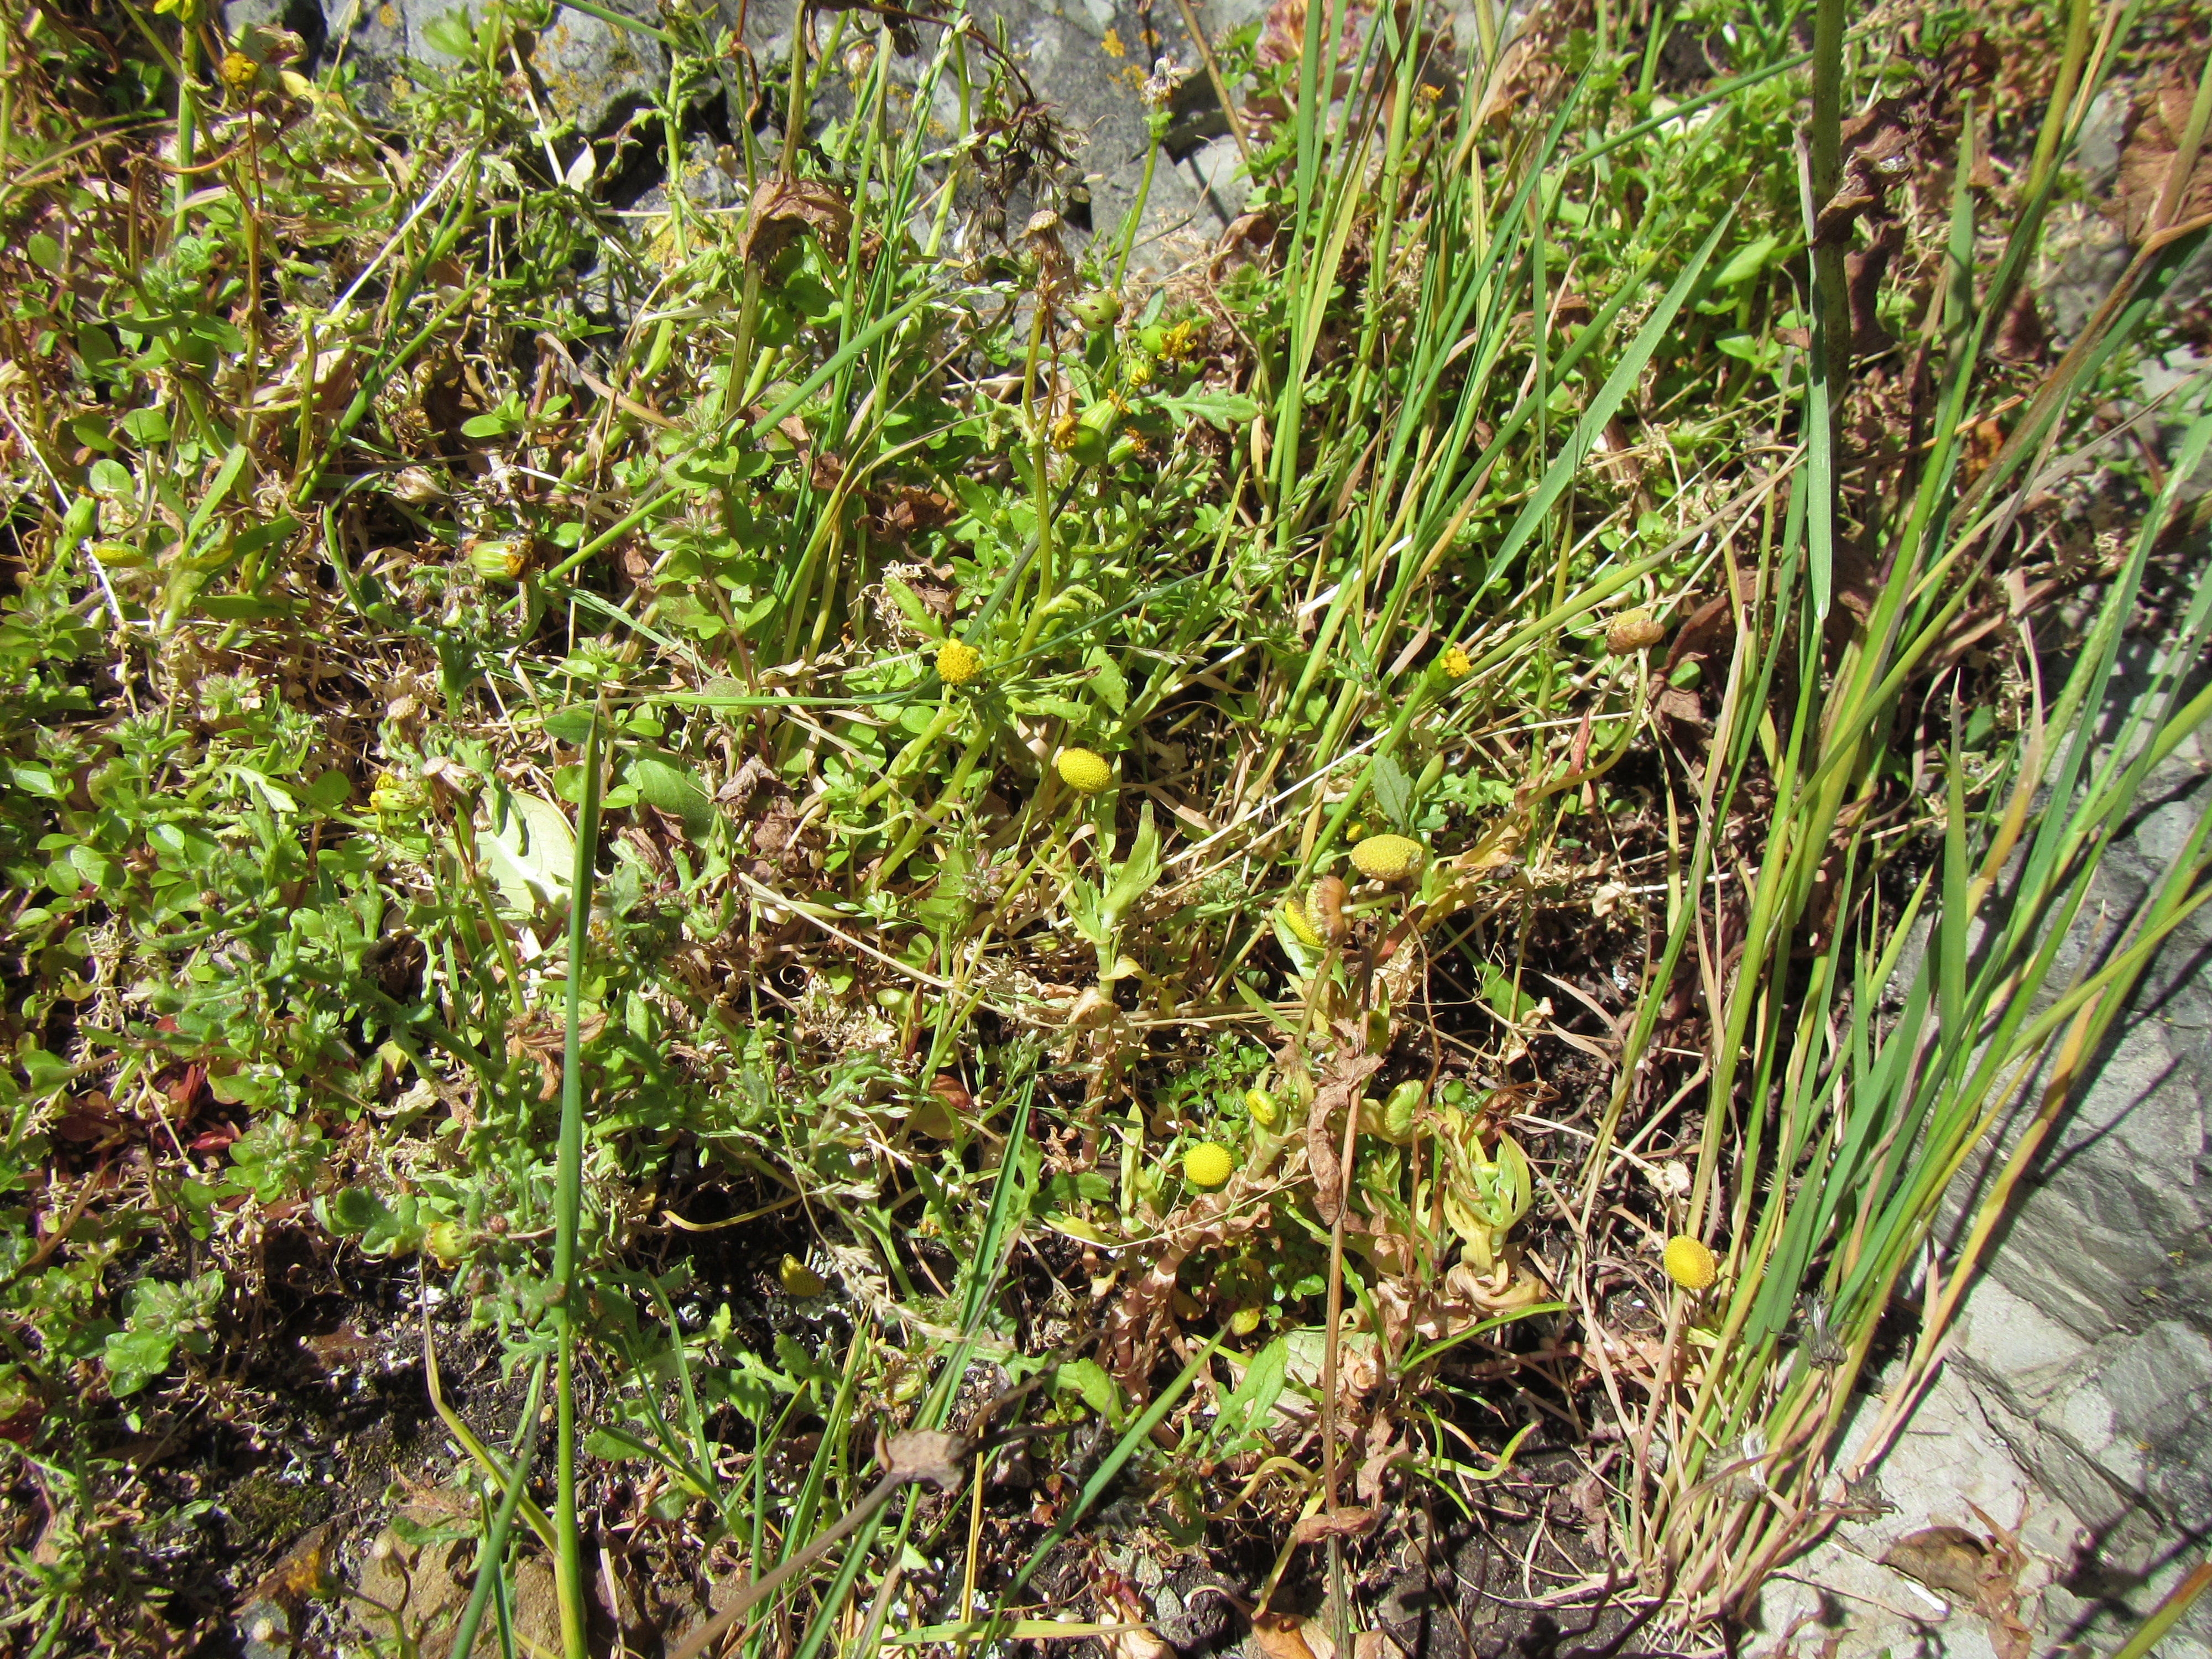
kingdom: Plantae
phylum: Tracheophyta
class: Magnoliopsida
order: Asterales
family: Asteraceae
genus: Cotula
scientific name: Cotula coronopifolia
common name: Buttonweed
